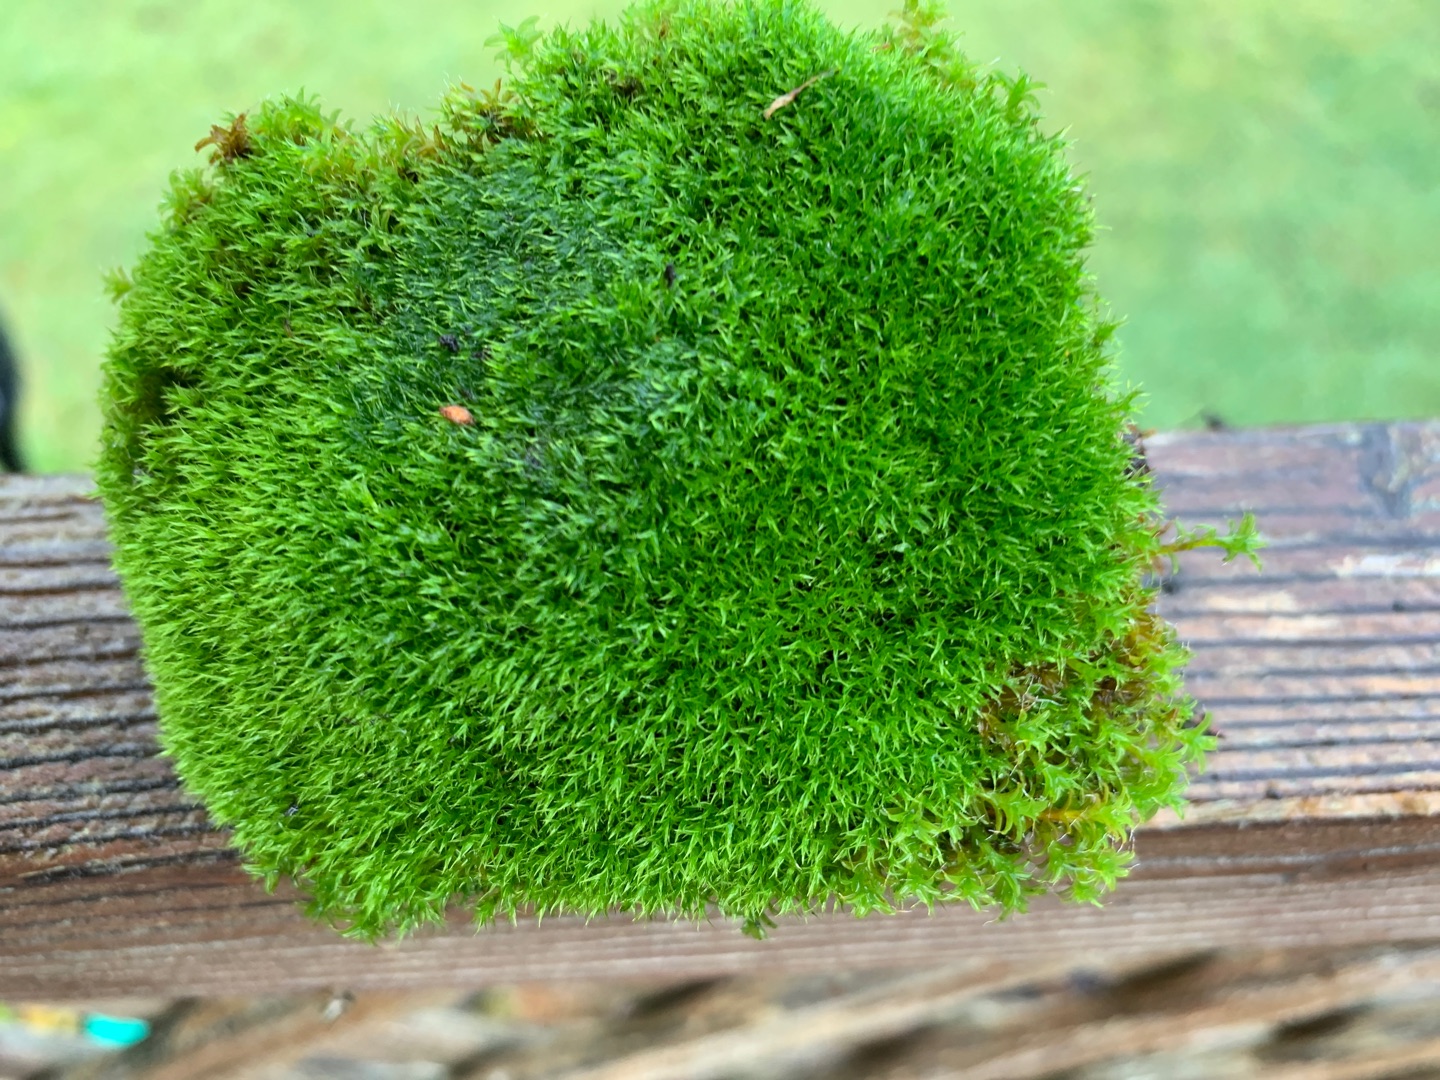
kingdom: Plantae
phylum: Bryophyta
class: Bryopsida
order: Dicranales
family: Ditrichaceae
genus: Ceratodon
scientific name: Ceratodon purpureus
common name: Rød horntand
